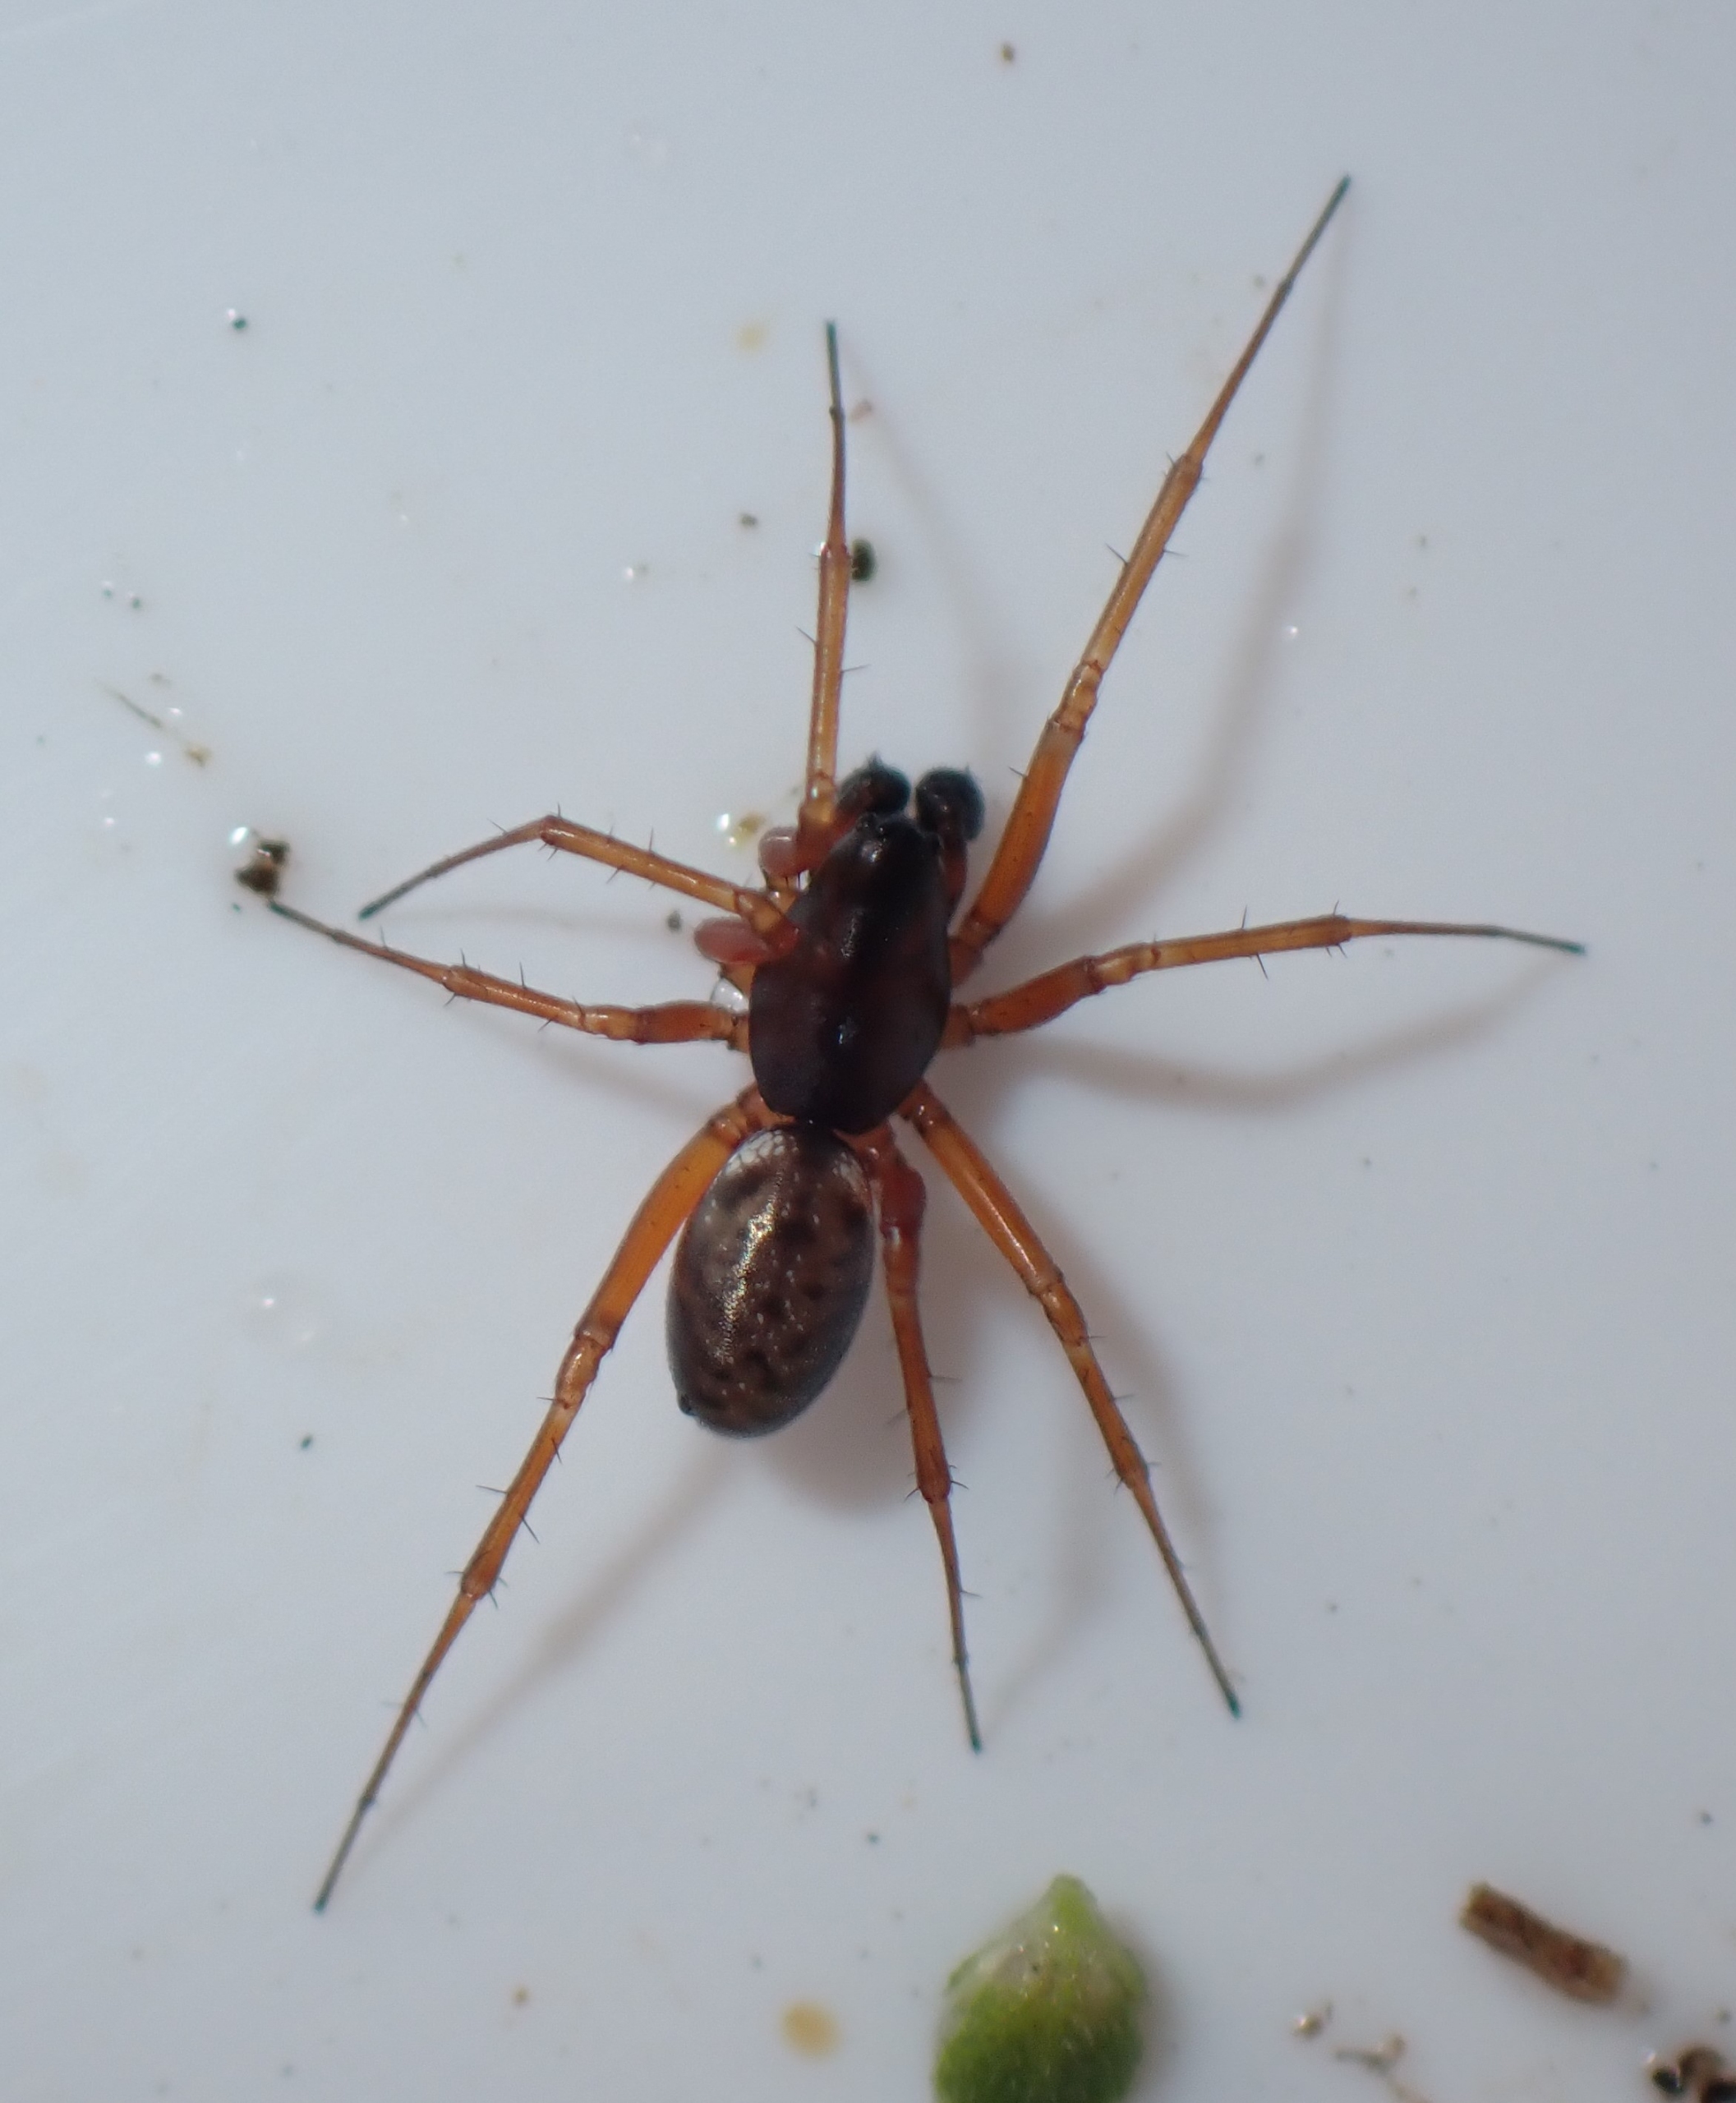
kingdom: Animalia
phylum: Arthropoda
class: Arachnida
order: Araneae
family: Linyphiidae
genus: Neriene
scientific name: Neriene clathrata
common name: Kratbaldakinspinder
